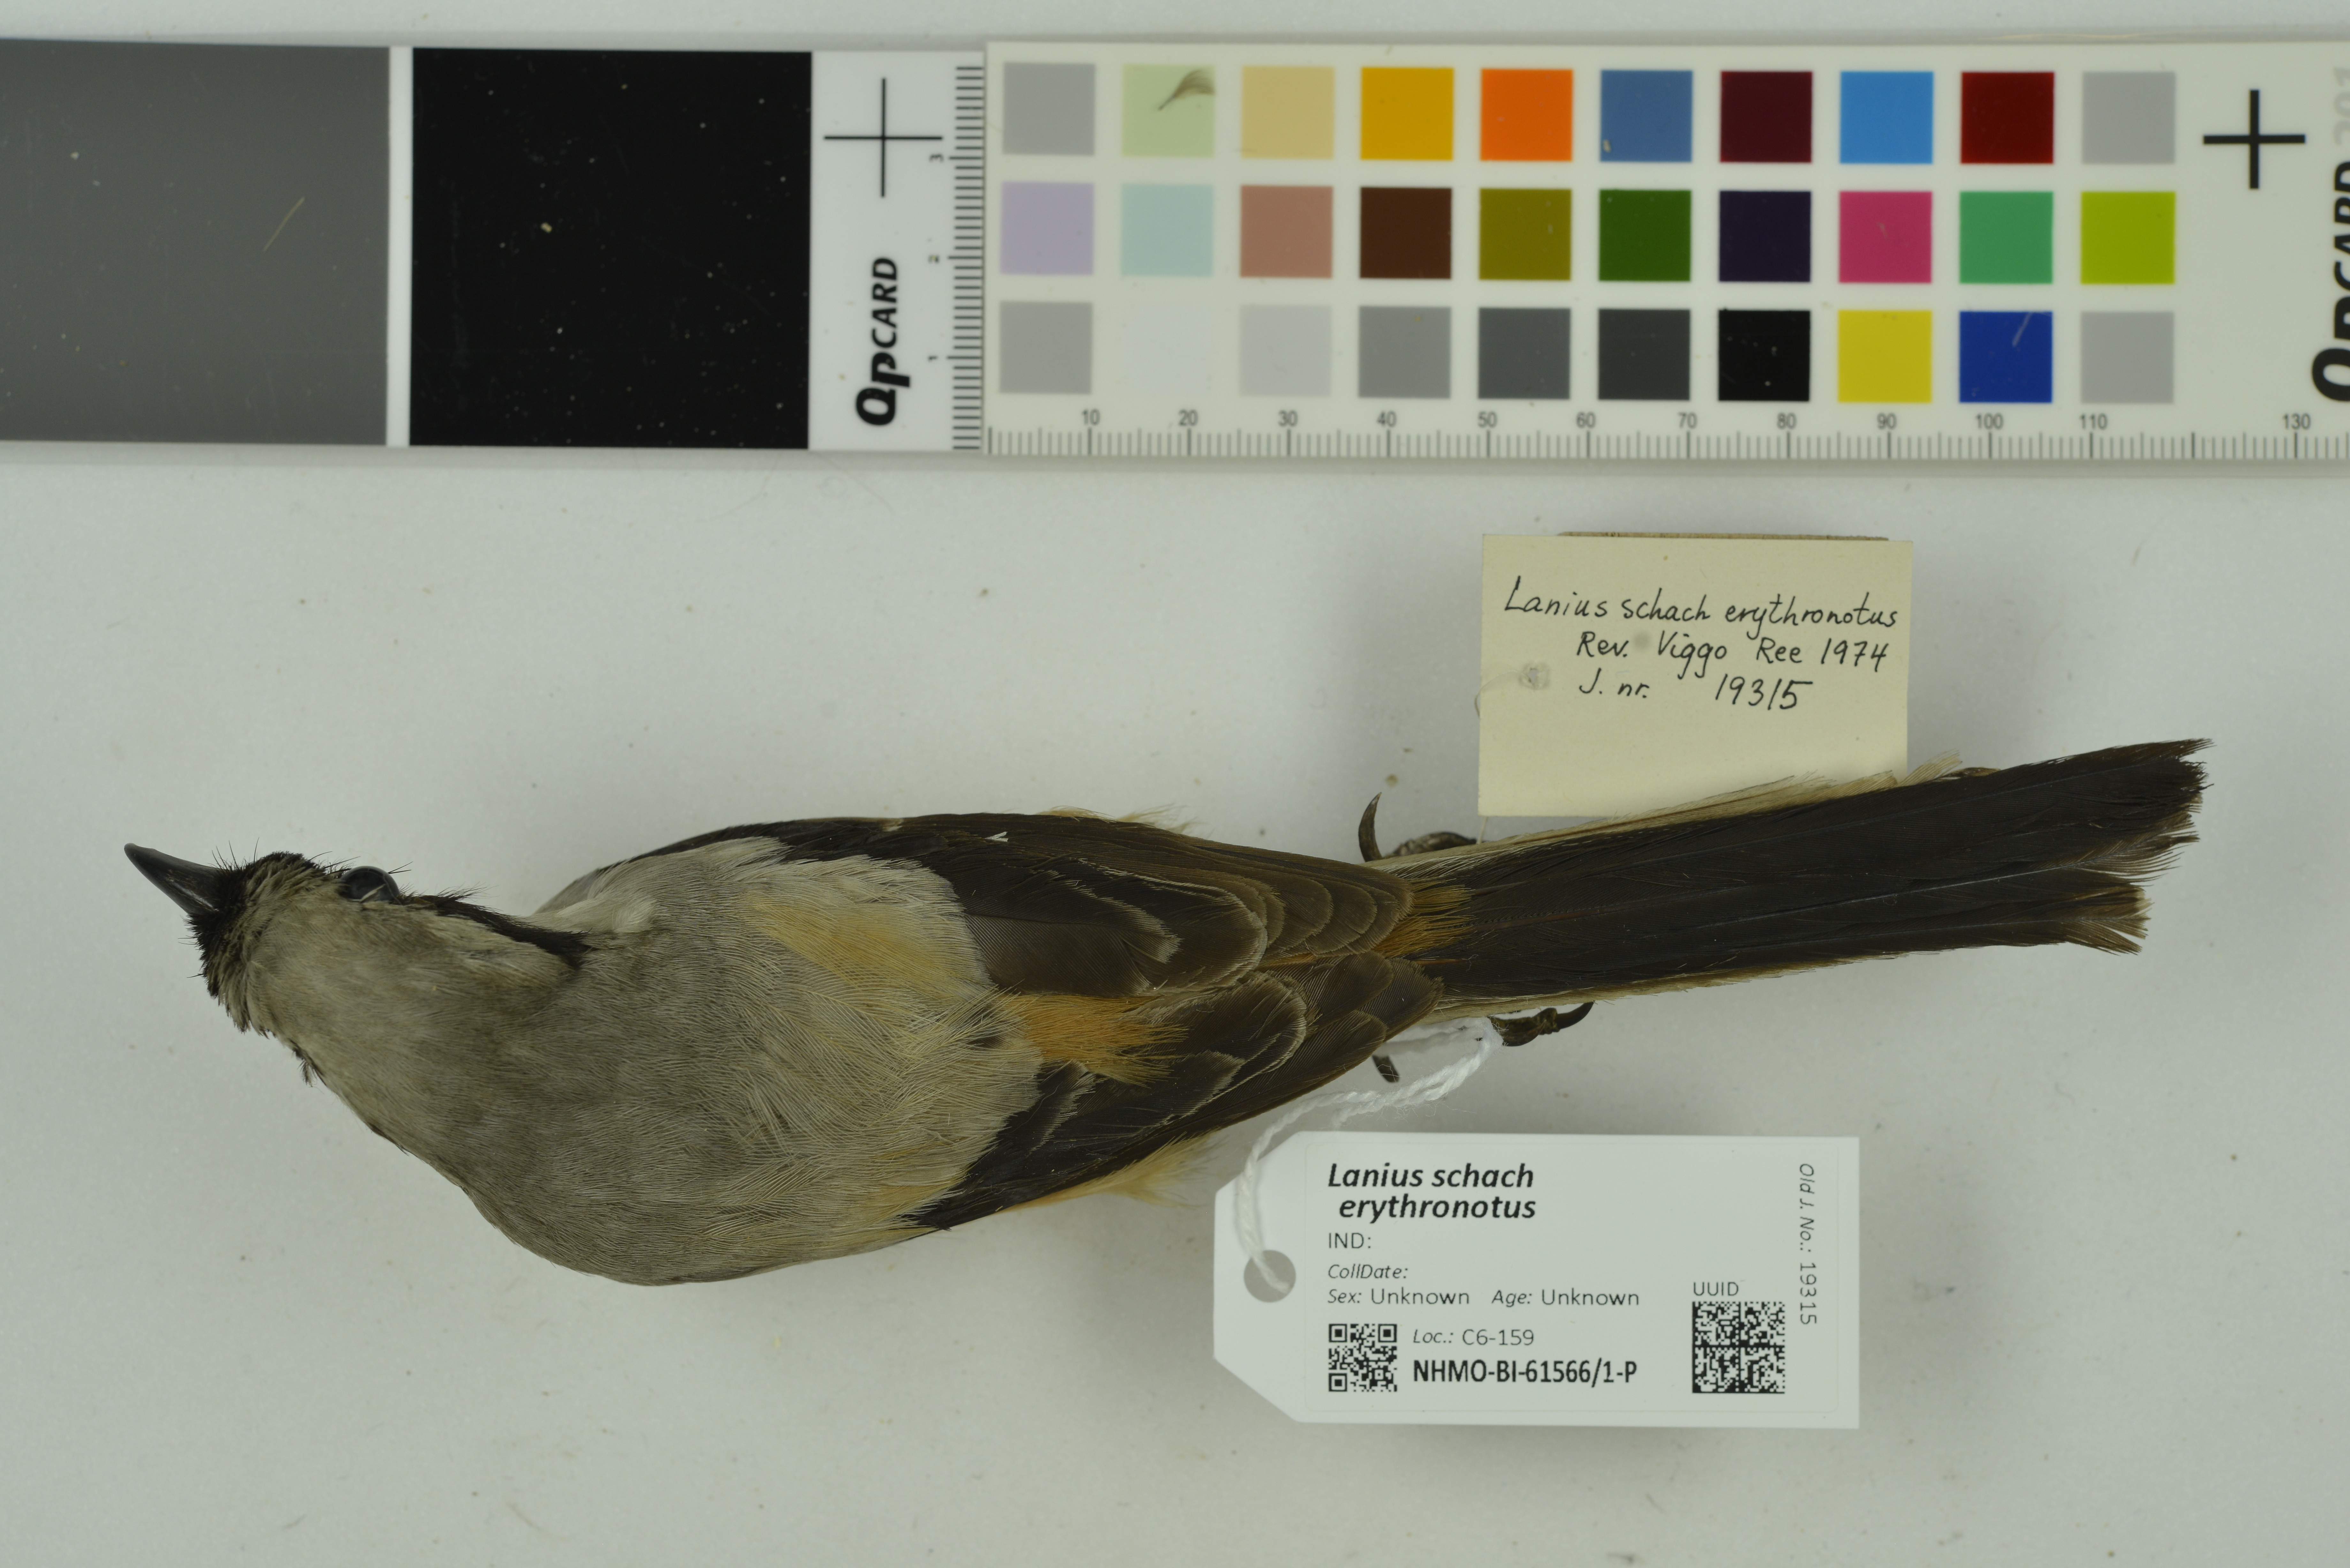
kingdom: Animalia
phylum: Chordata
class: Aves
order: Passeriformes
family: Laniidae
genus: Lanius
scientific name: Lanius schach
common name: Long-tailed shrike
